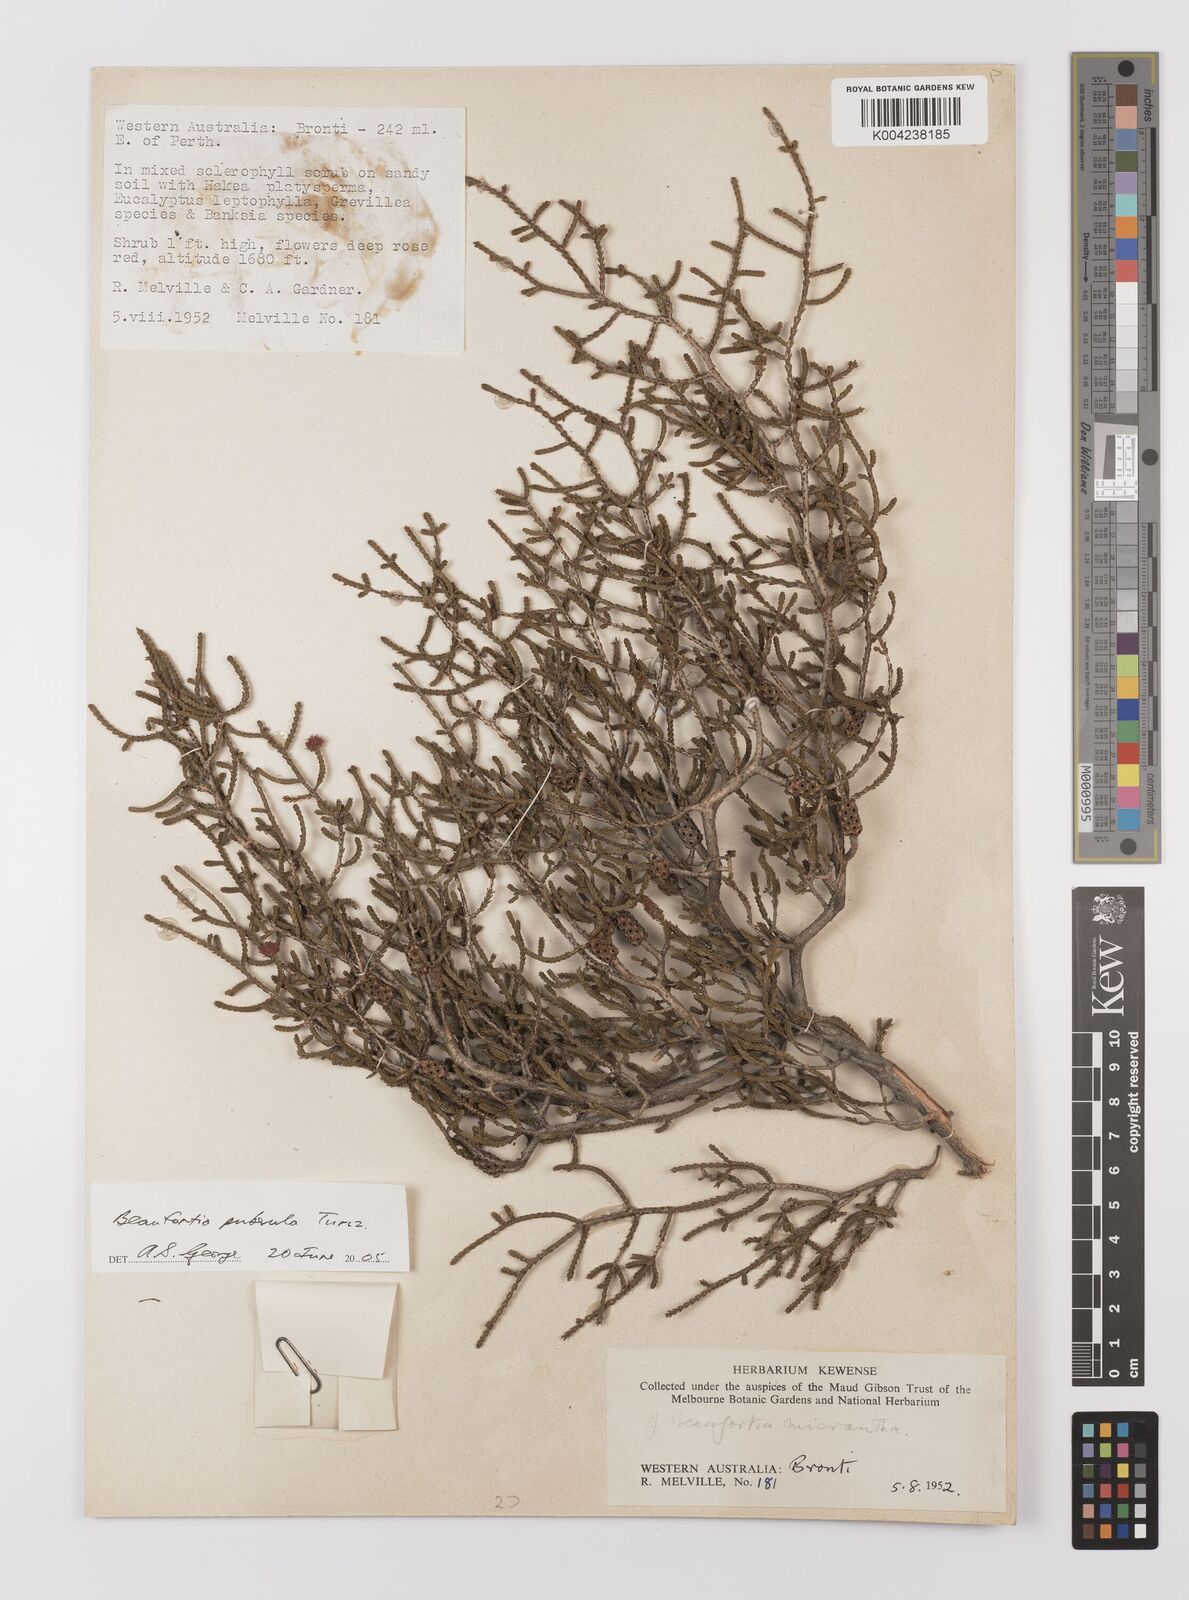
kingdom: Plantae
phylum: Tracheophyta
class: Magnoliopsida
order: Myrtales
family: Myrtaceae
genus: Melaleuca
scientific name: Melaleuca micrantha
